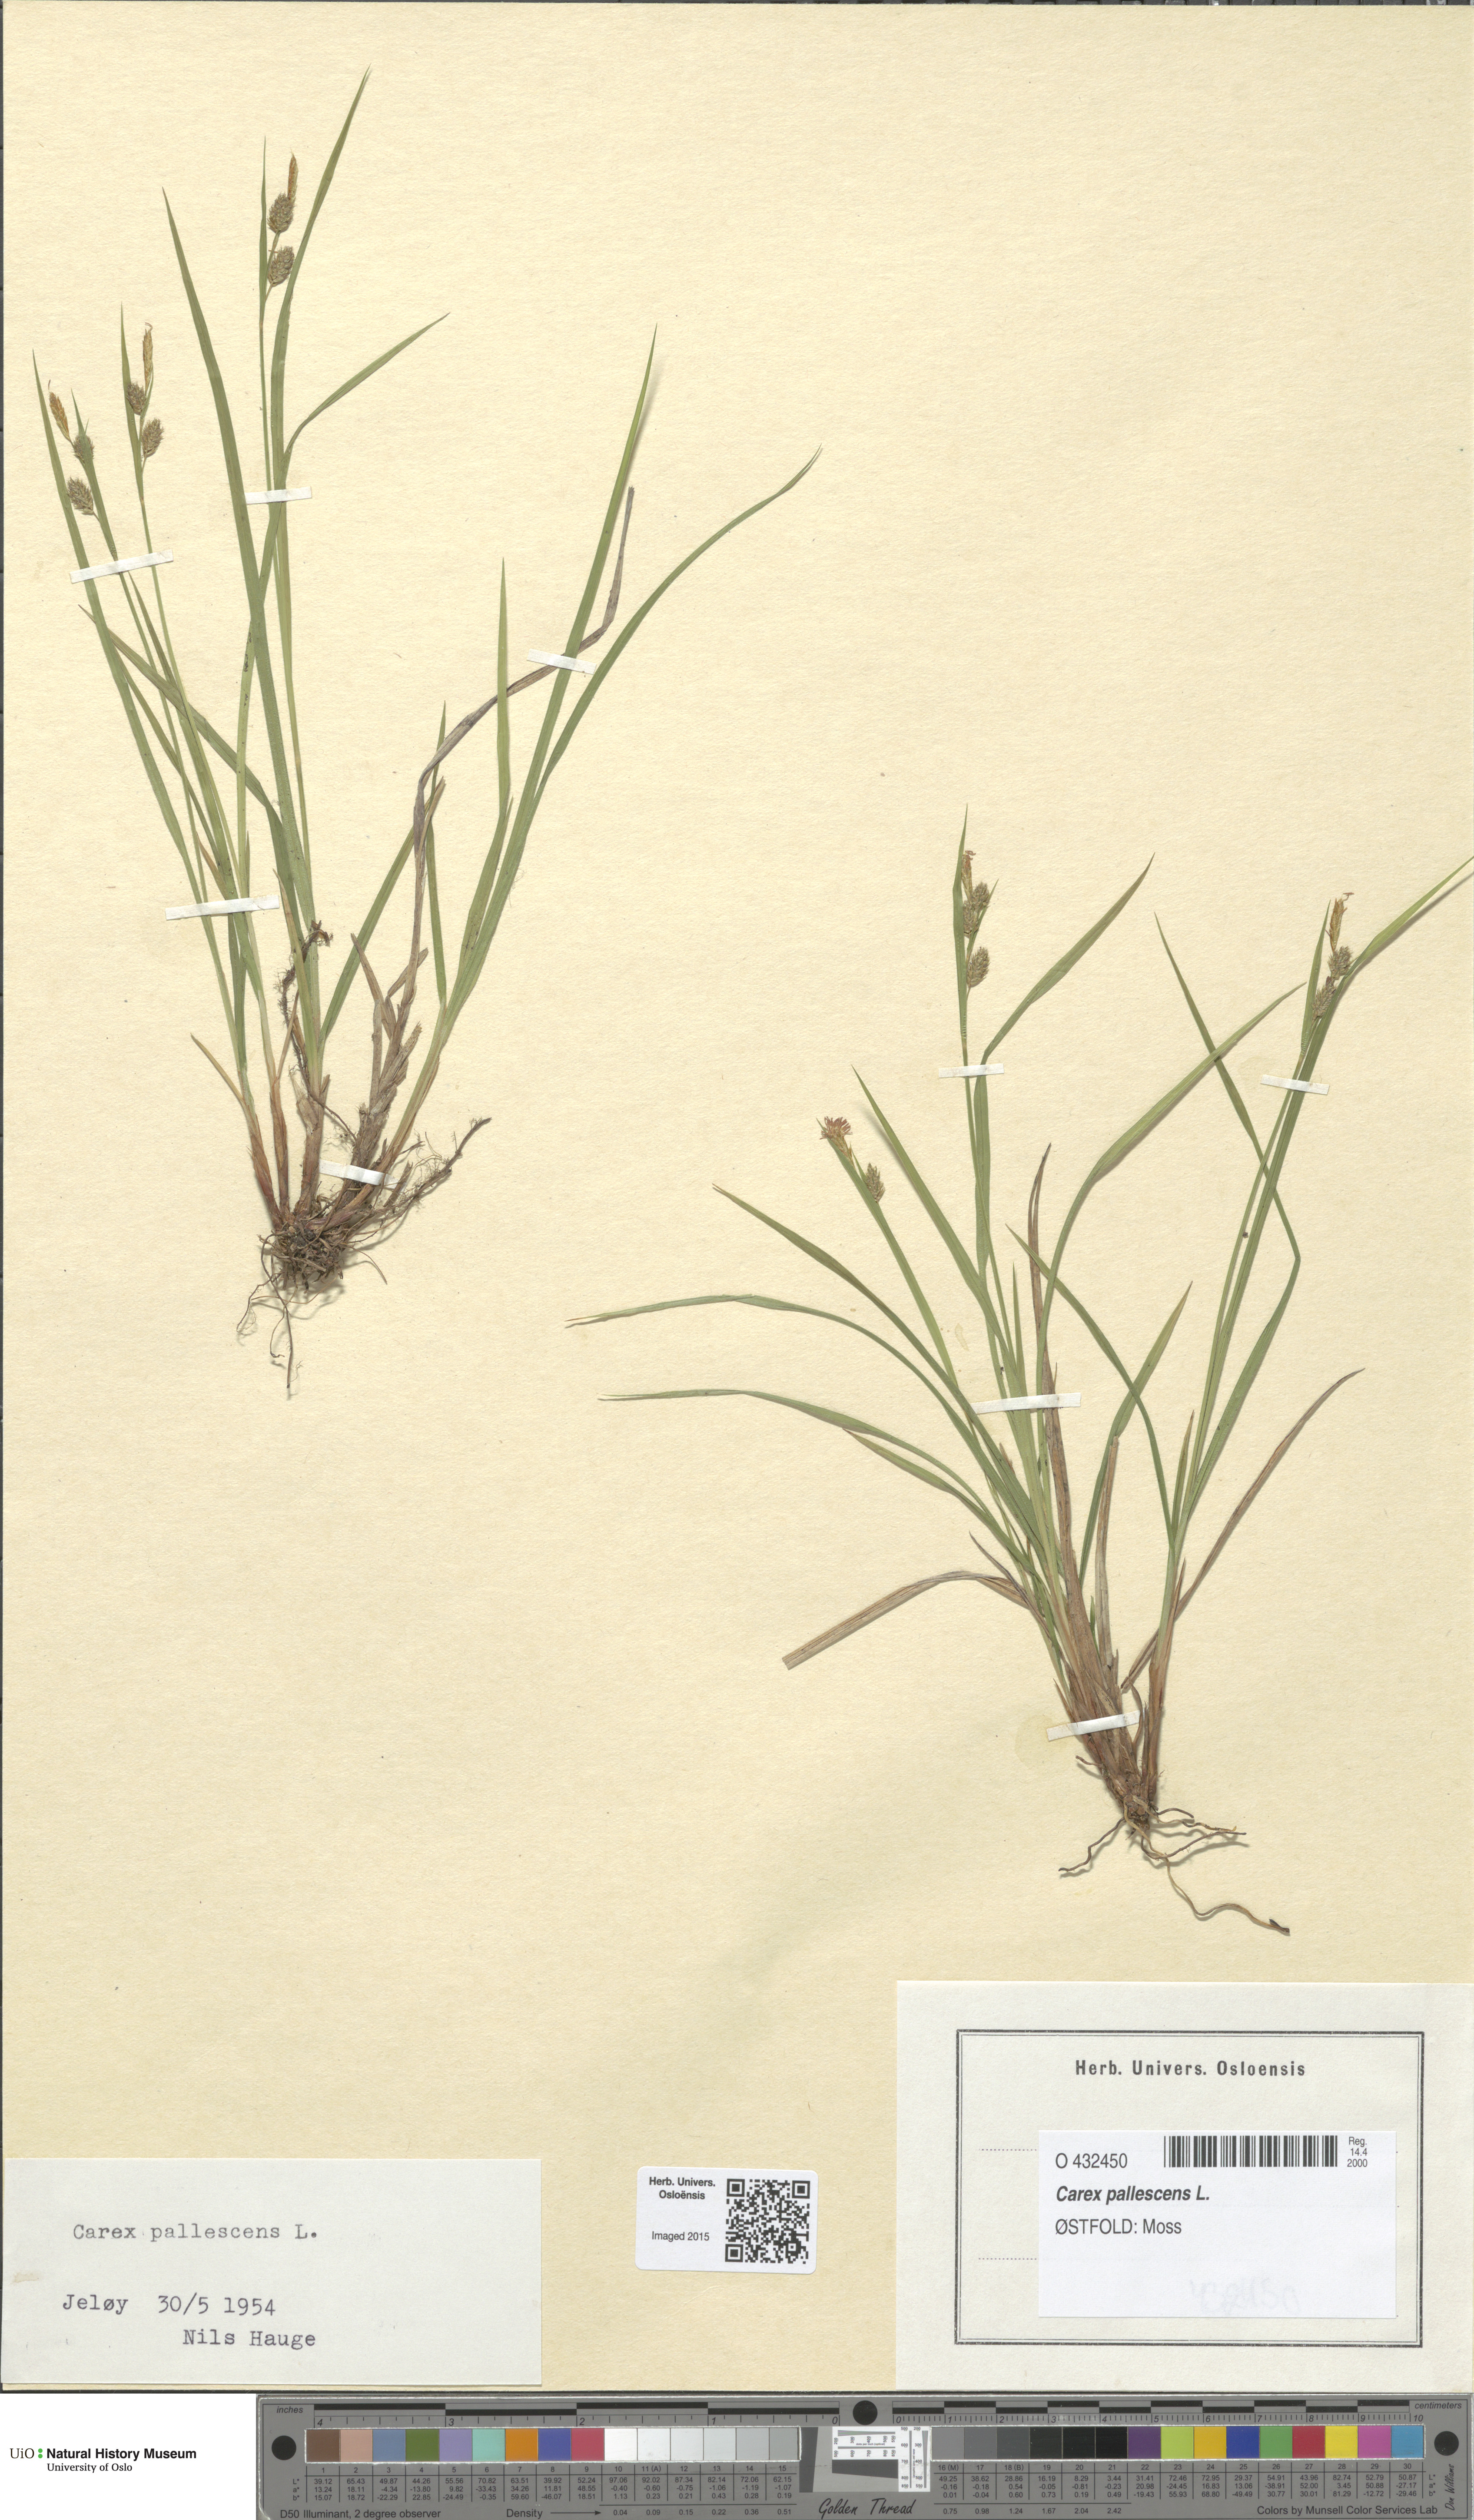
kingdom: Plantae
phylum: Tracheophyta
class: Liliopsida
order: Poales
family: Cyperaceae
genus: Carex
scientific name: Carex pallescens
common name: Pale sedge
